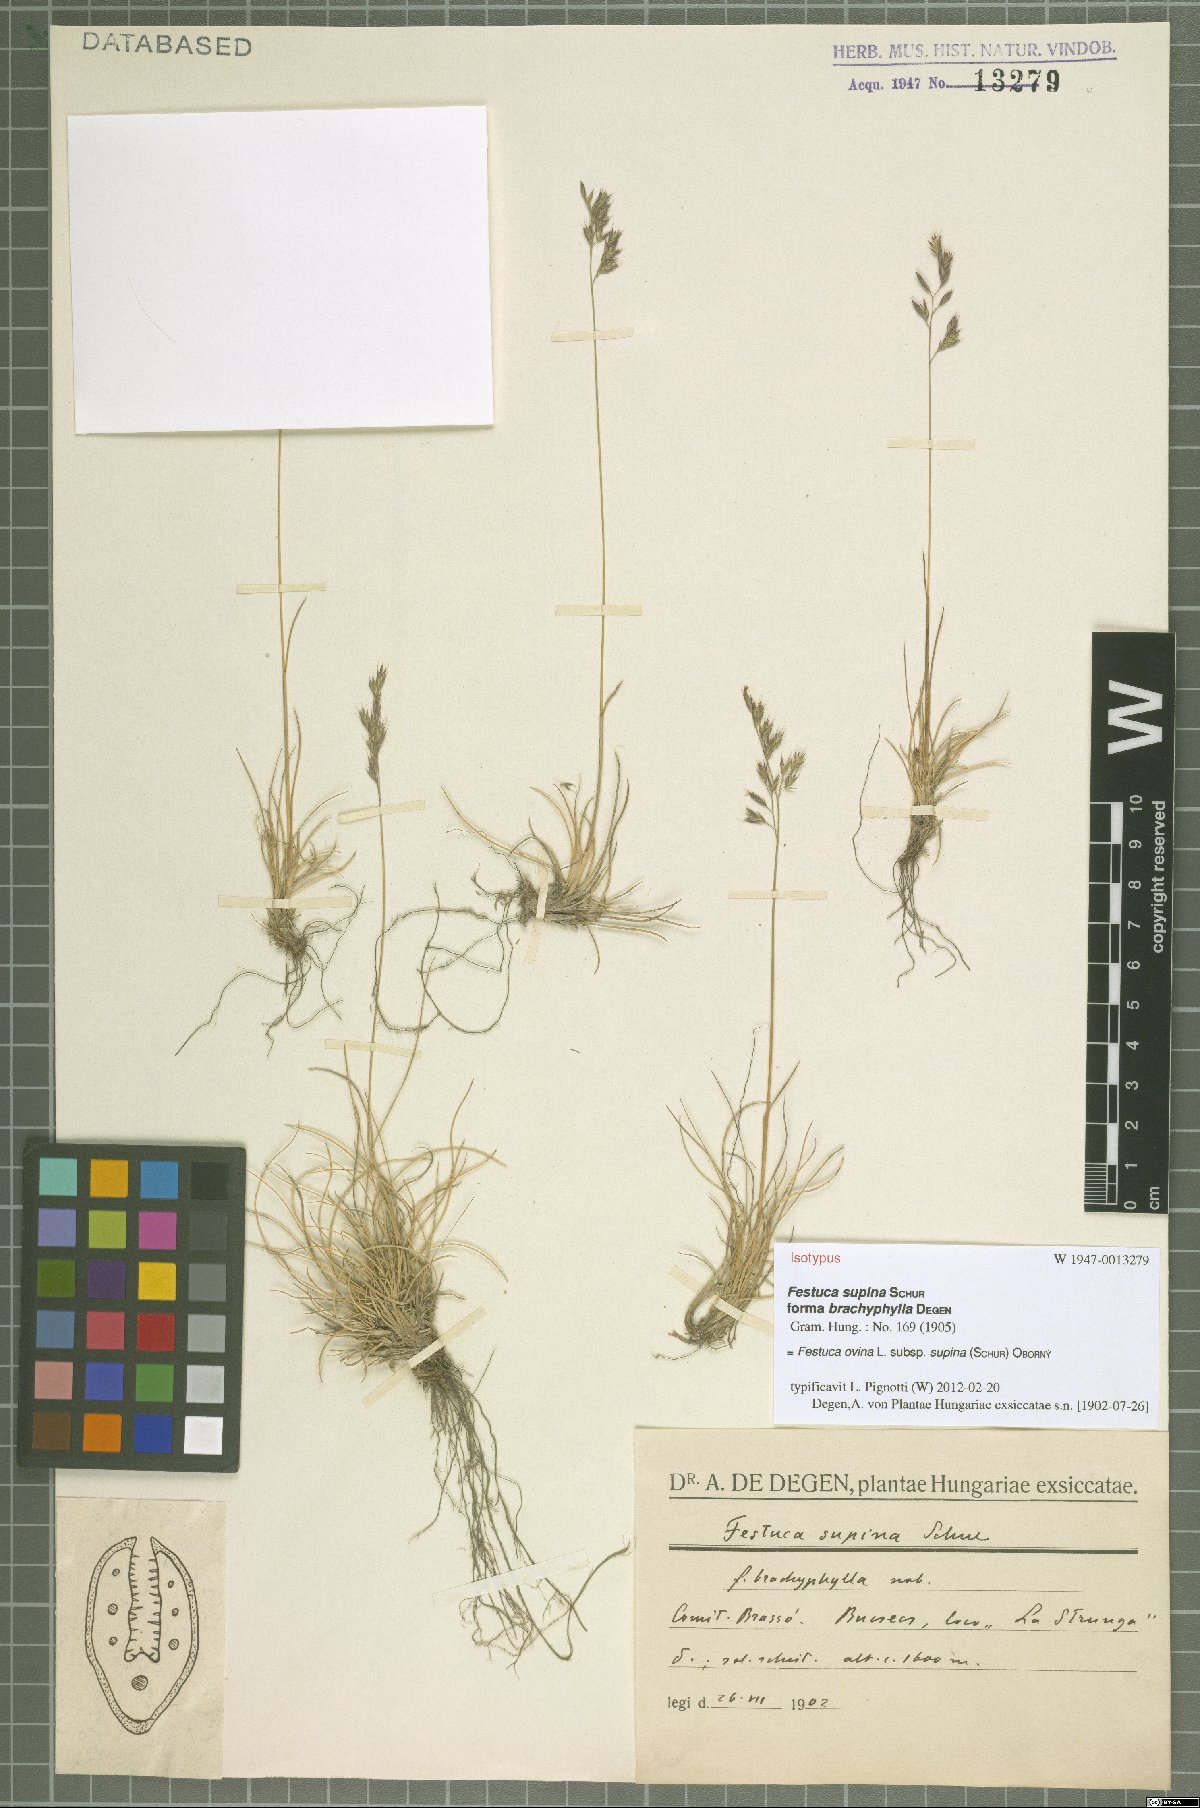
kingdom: Plantae
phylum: Tracheophyta
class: Liliopsida
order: Poales
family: Poaceae
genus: Festuca
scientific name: Festuca airoides
